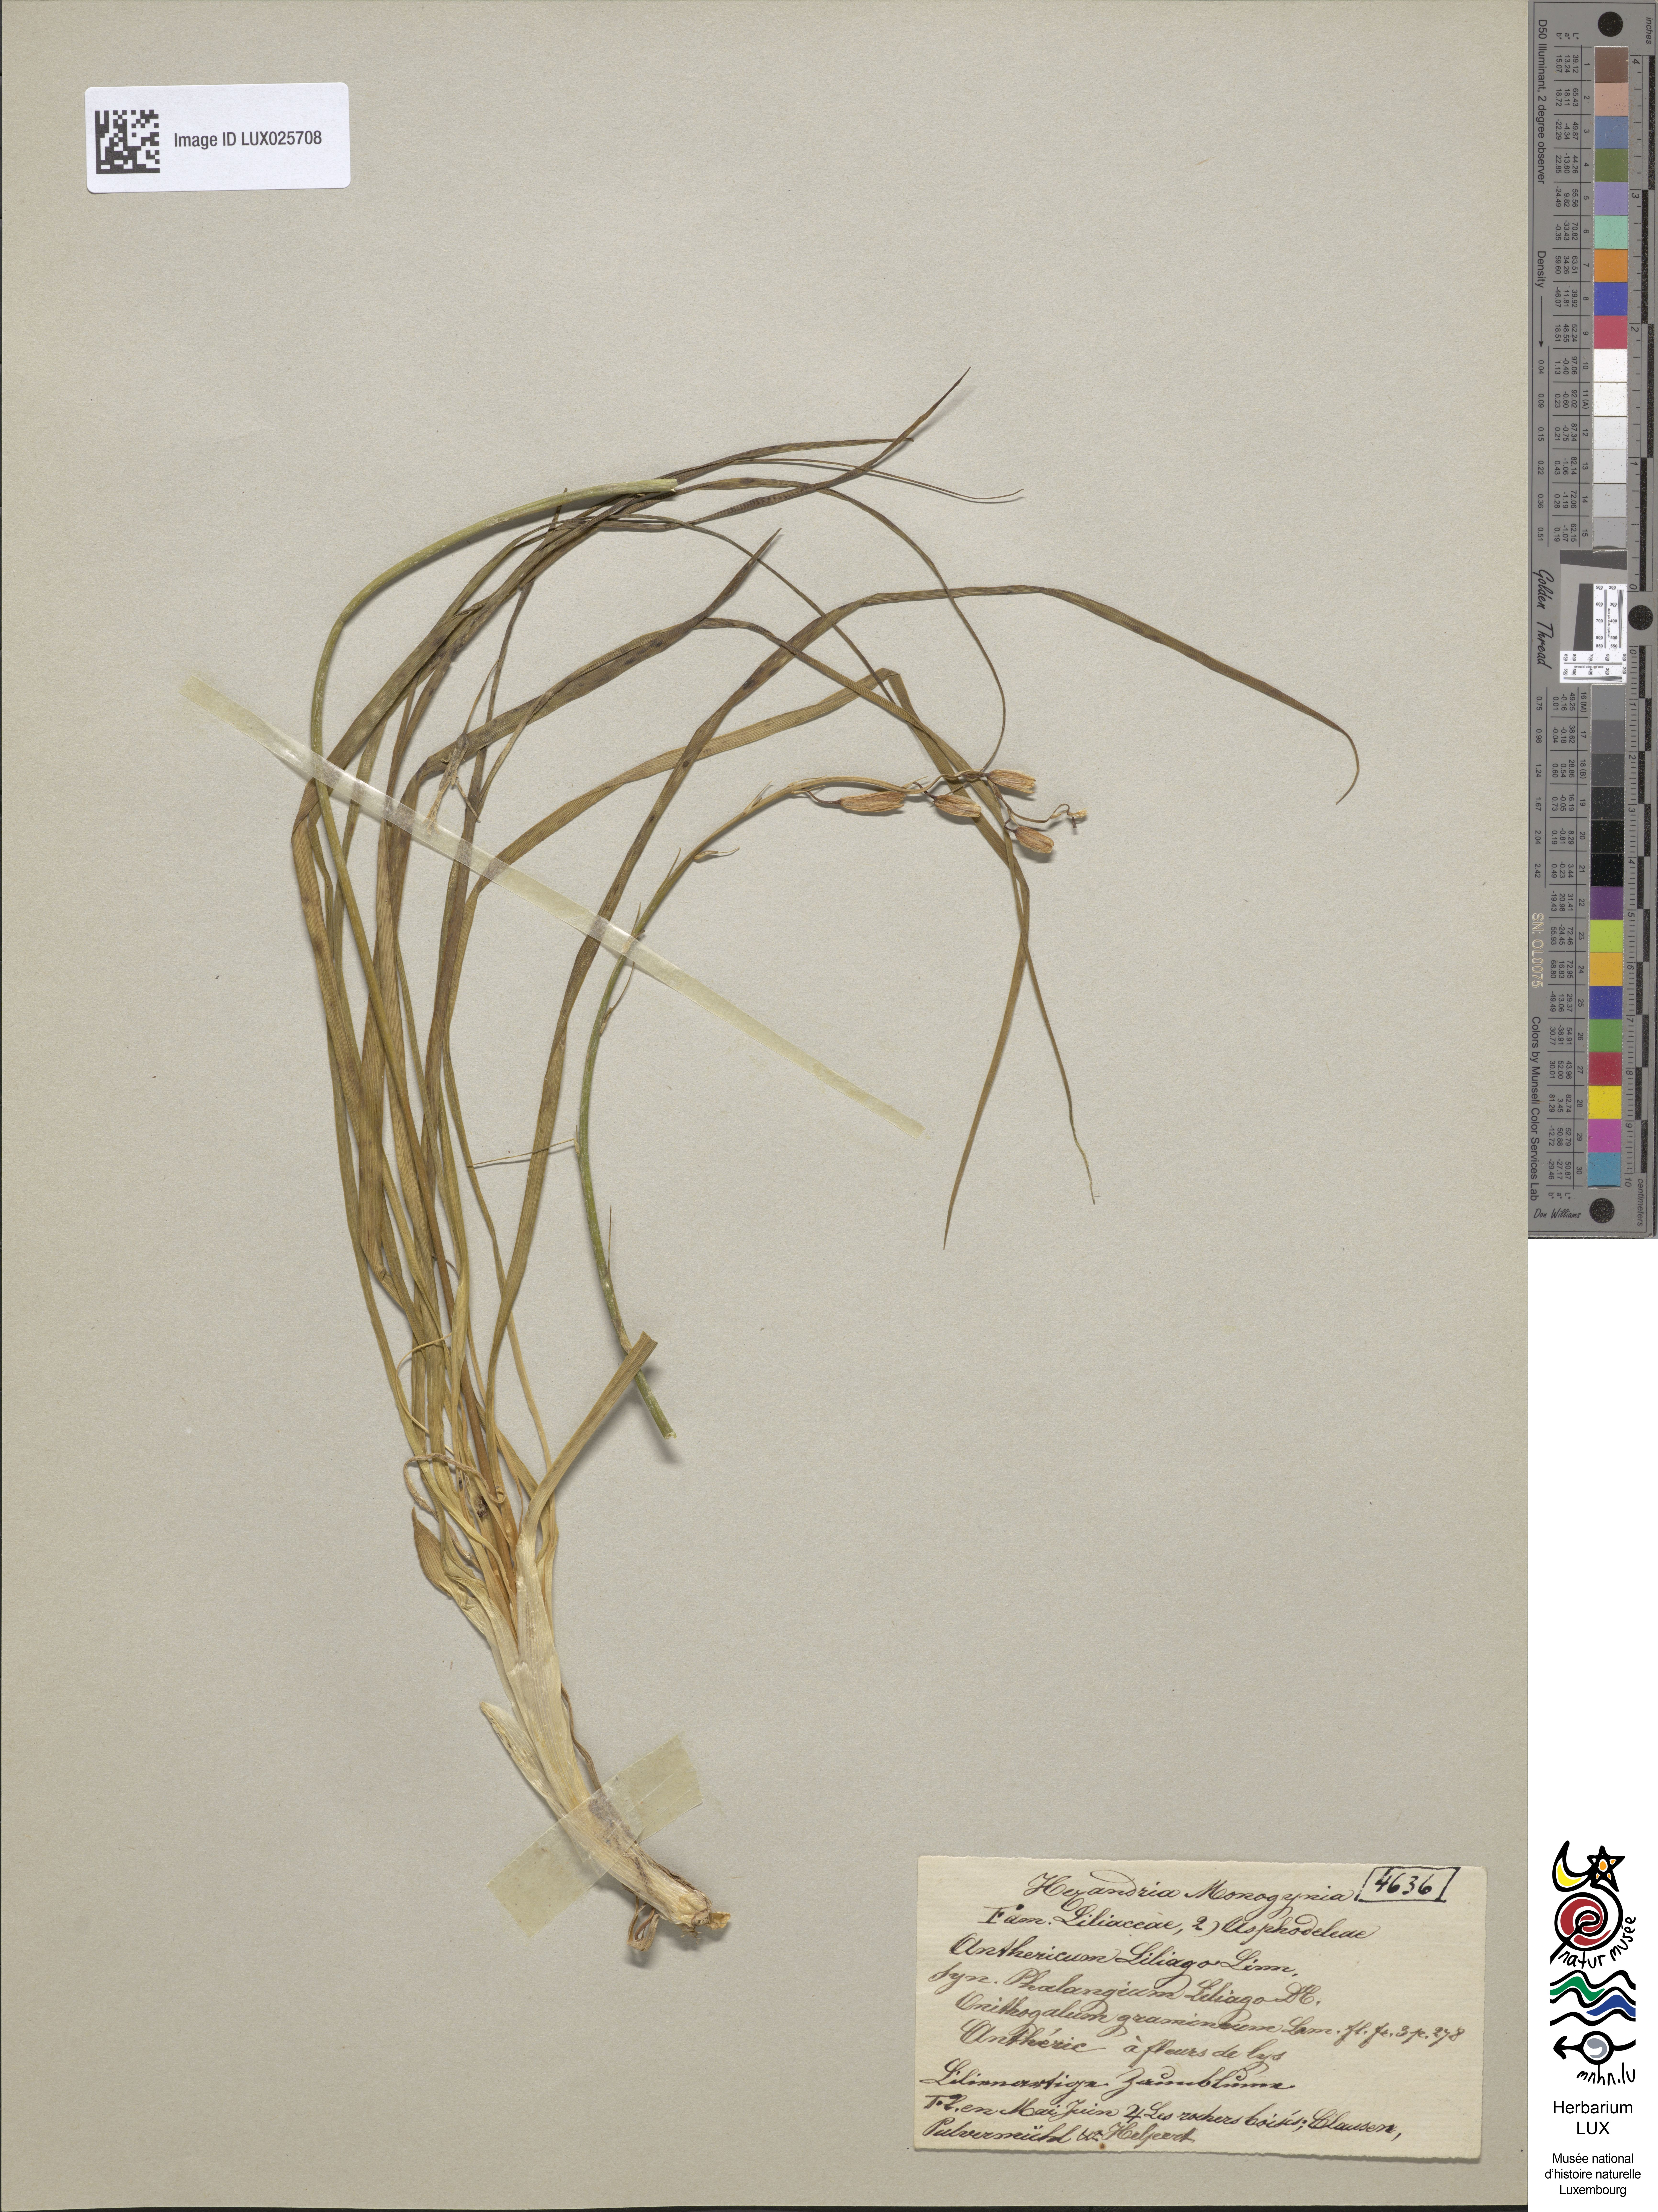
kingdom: Plantae
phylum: Tracheophyta
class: Liliopsida
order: Asparagales
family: Asparagaceae
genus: Anthericum
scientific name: Anthericum liliago
